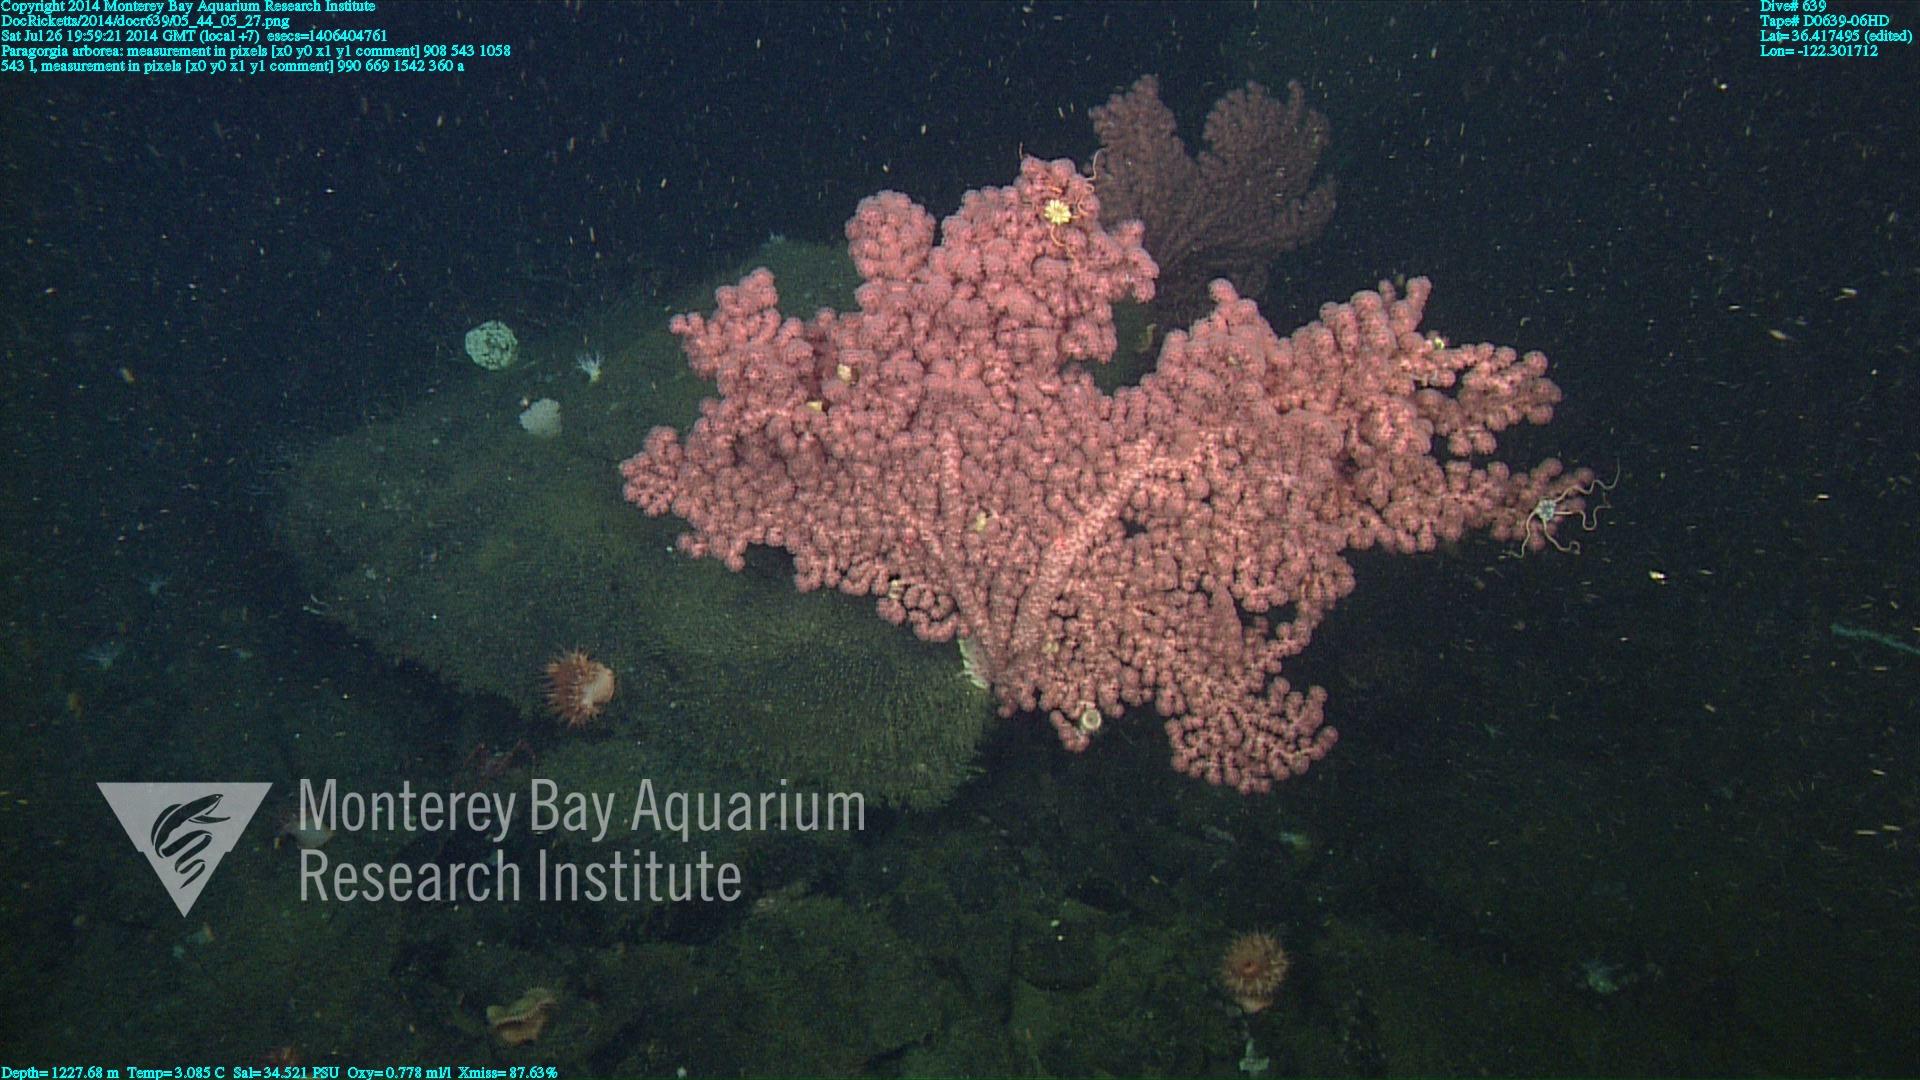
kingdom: Animalia
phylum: Cnidaria
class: Anthozoa
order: Scleralcyonacea
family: Coralliidae
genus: Paragorgia
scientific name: Paragorgia arborea
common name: Bubble gum coral
